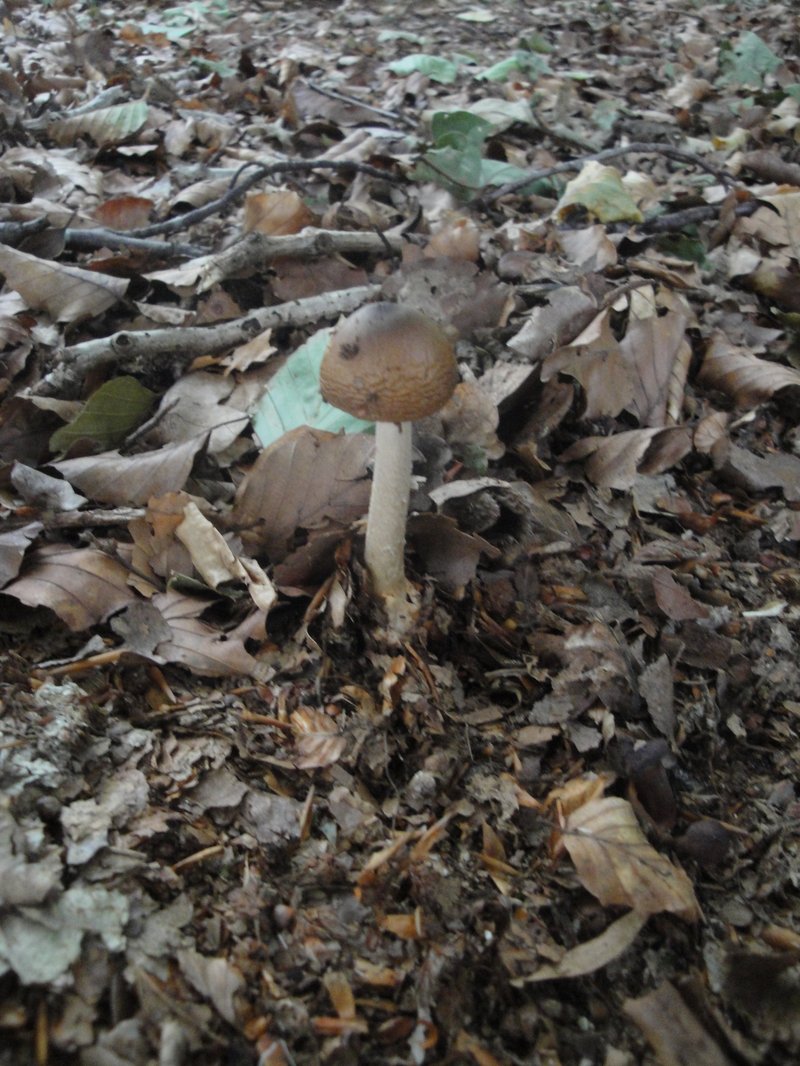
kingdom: Fungi
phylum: Basidiomycota
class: Agaricomycetes
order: Agaricales
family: Amanitaceae
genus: Amanita
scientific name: Amanita fulva
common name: brun kam-fluesvamp
